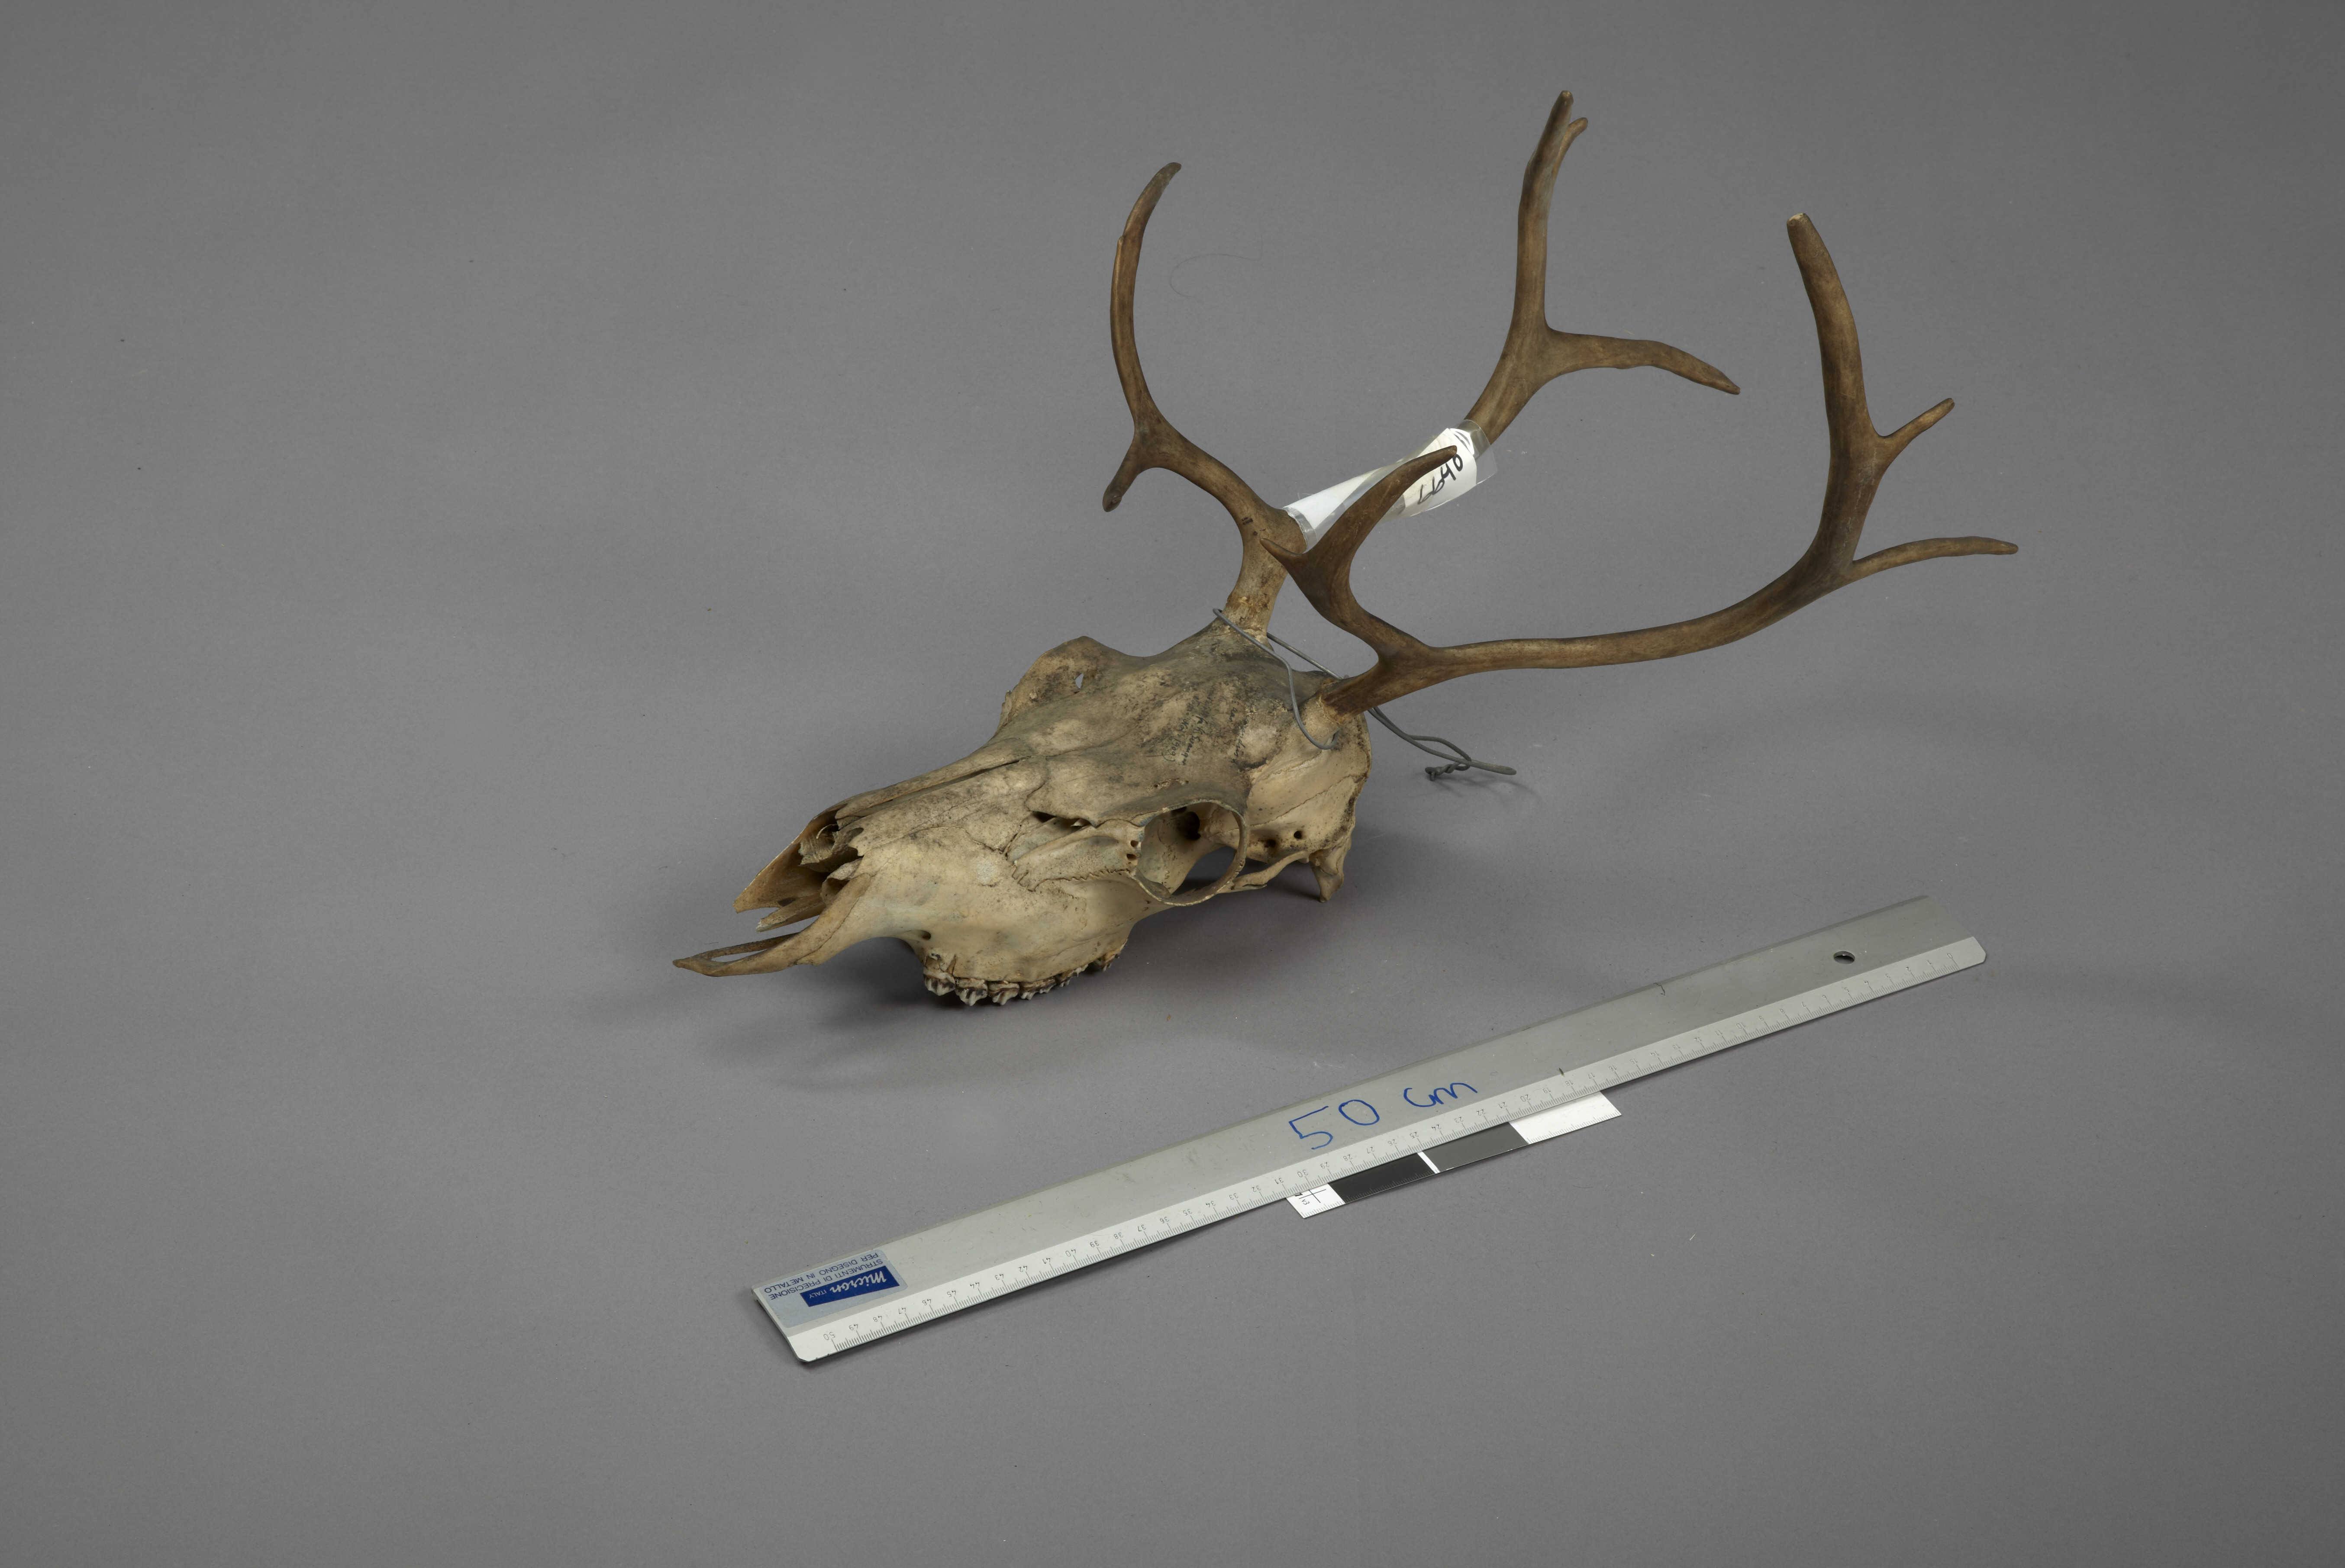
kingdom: Animalia
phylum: Chordata
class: Mammalia
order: Artiodactyla
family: Cervidae
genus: Rangifer
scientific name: Rangifer tarandus
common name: Reindeer
